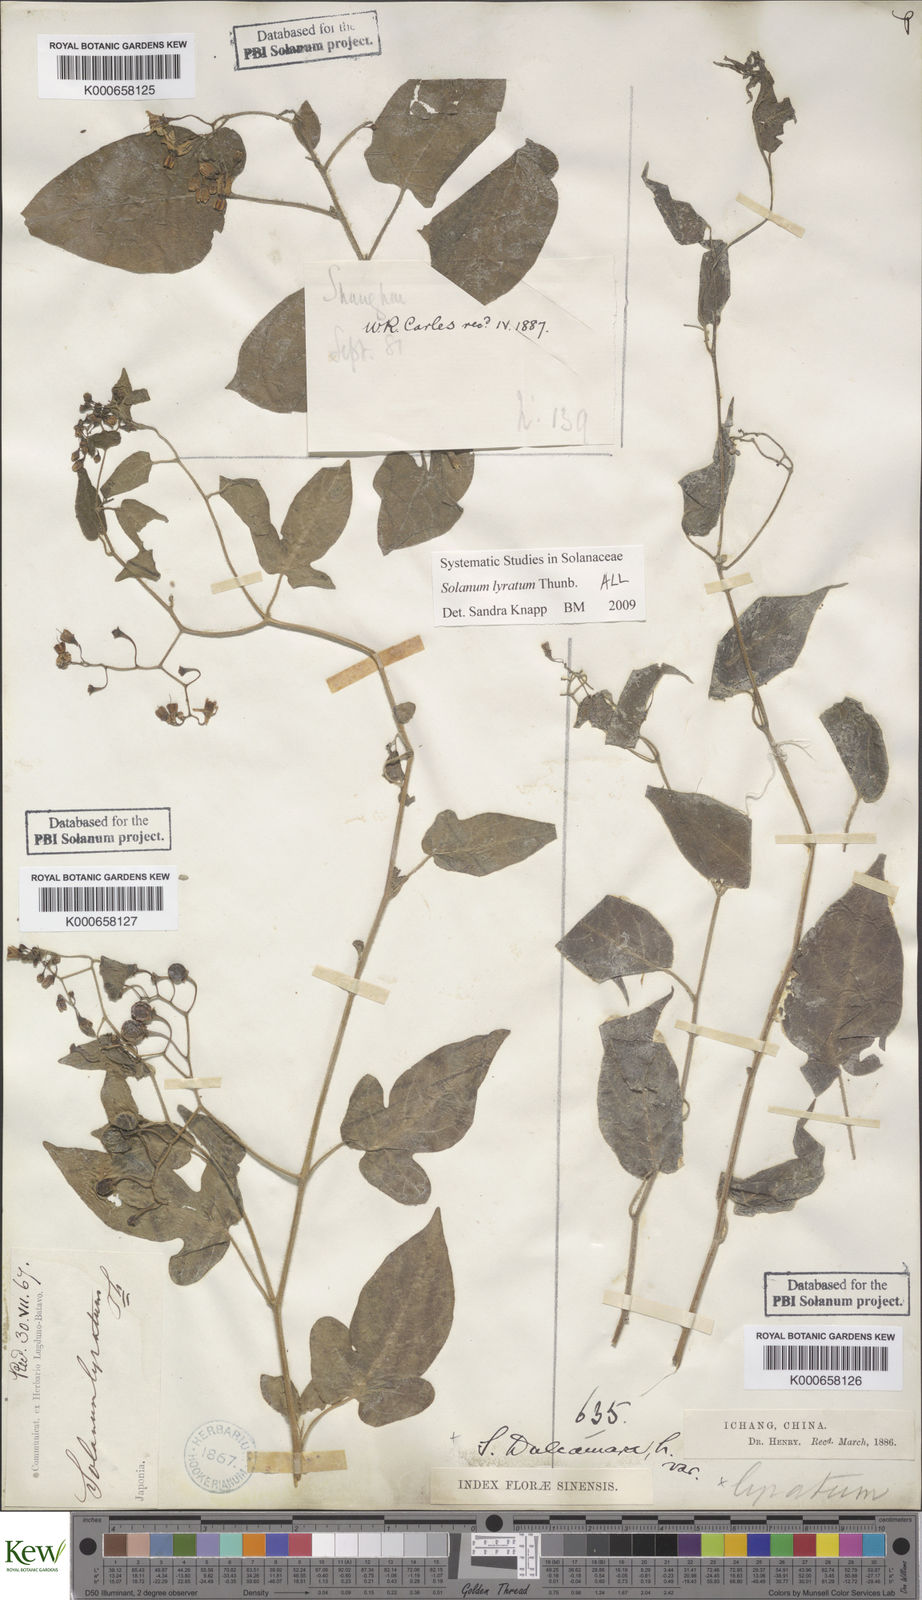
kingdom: Plantae
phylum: Tracheophyta
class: Magnoliopsida
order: Solanales
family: Solanaceae
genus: Solanum
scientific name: Solanum lyratum
